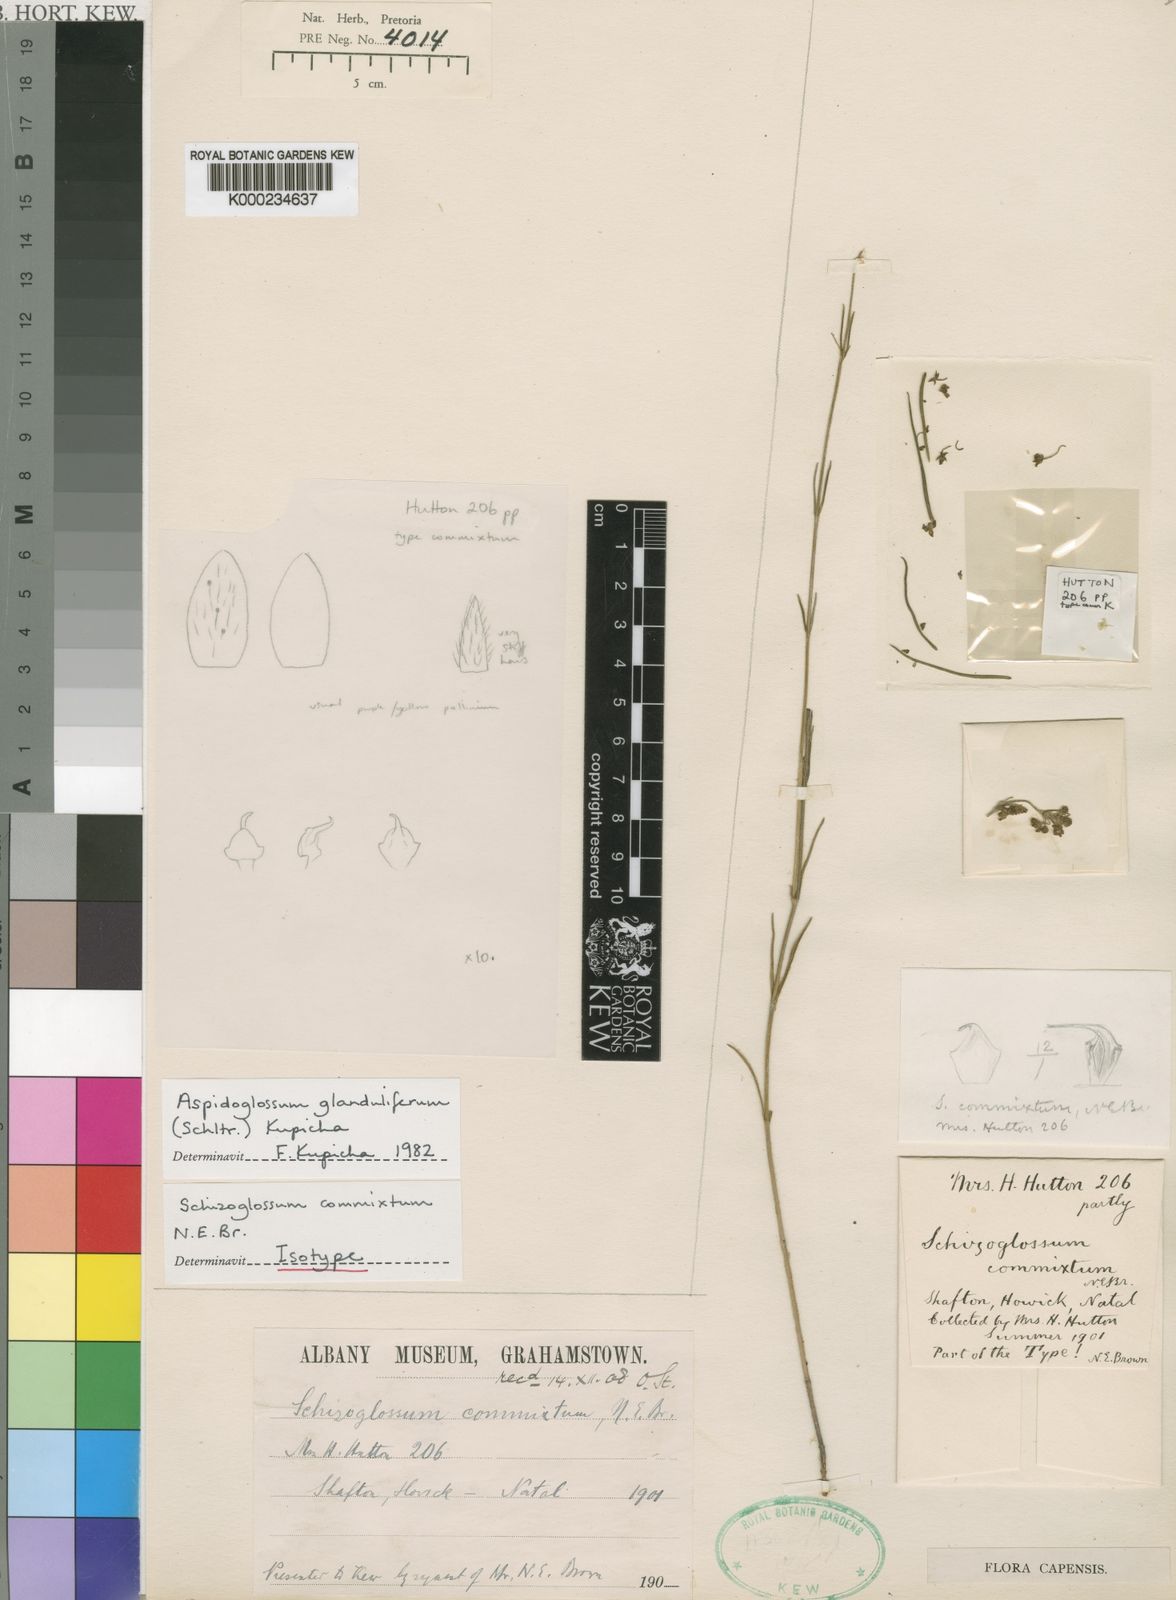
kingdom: Plantae
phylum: Tracheophyta
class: Magnoliopsida
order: Gentianales
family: Apocynaceae
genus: Aspidoglossum
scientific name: Aspidoglossum glanduliferum
